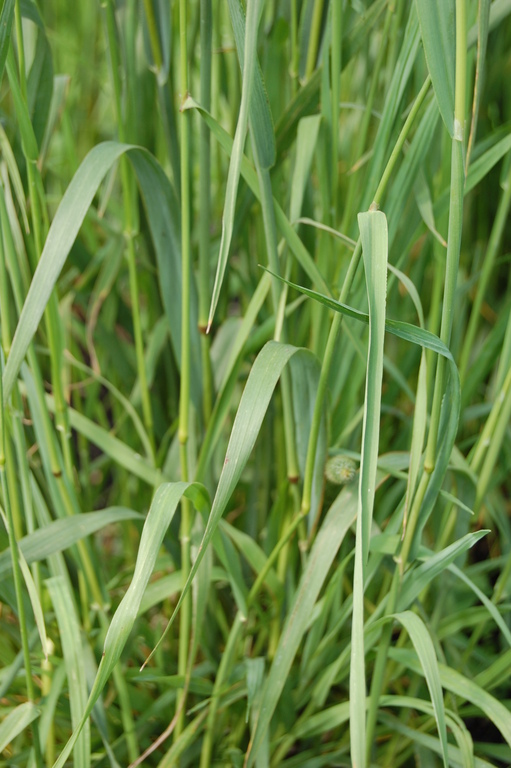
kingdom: Plantae
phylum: Tracheophyta
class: Liliopsida
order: Poales
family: Poaceae
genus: Phleum
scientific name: Phleum pratense
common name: Timothy grass
